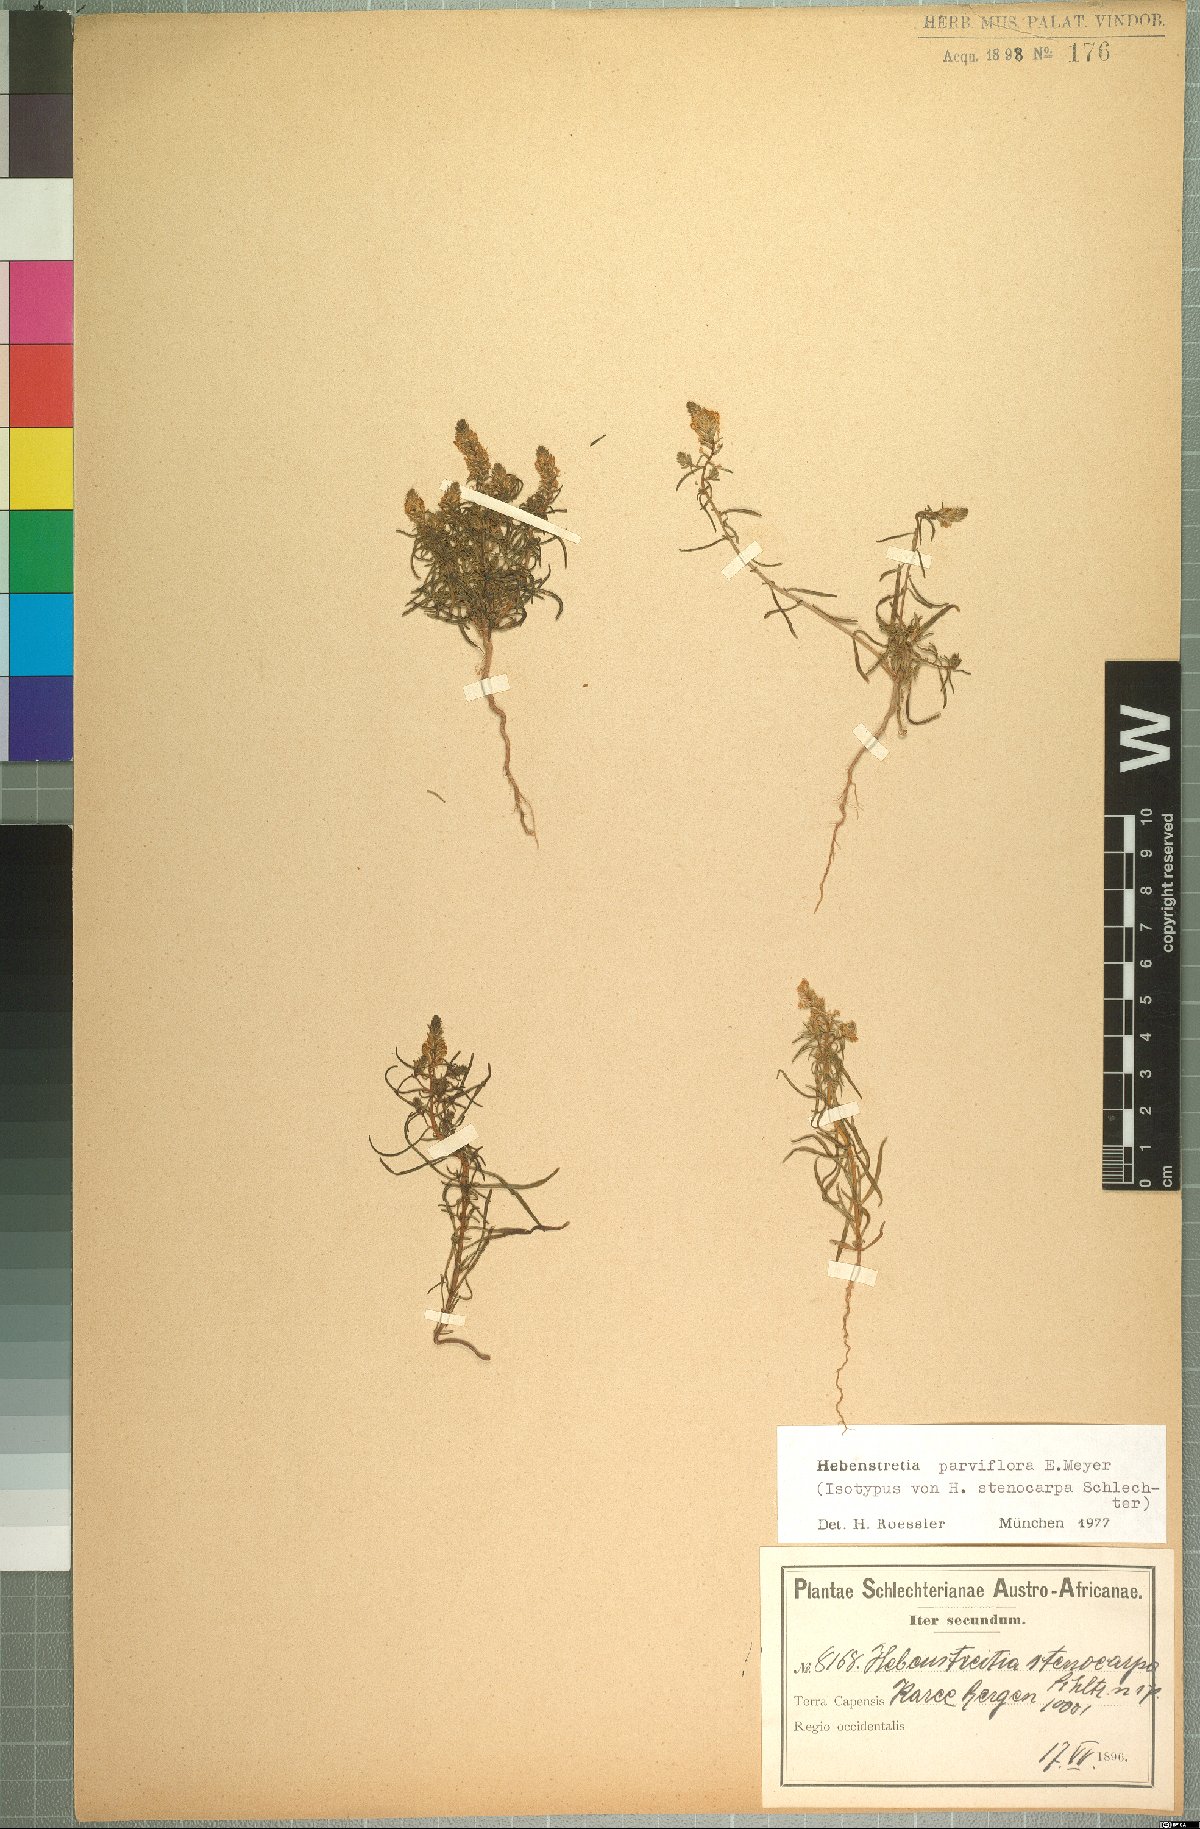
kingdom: Plantae
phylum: Tracheophyta
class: Magnoliopsida
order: Lamiales
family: Scrophulariaceae
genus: Hebenstretia
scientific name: Hebenstretia parviflora
